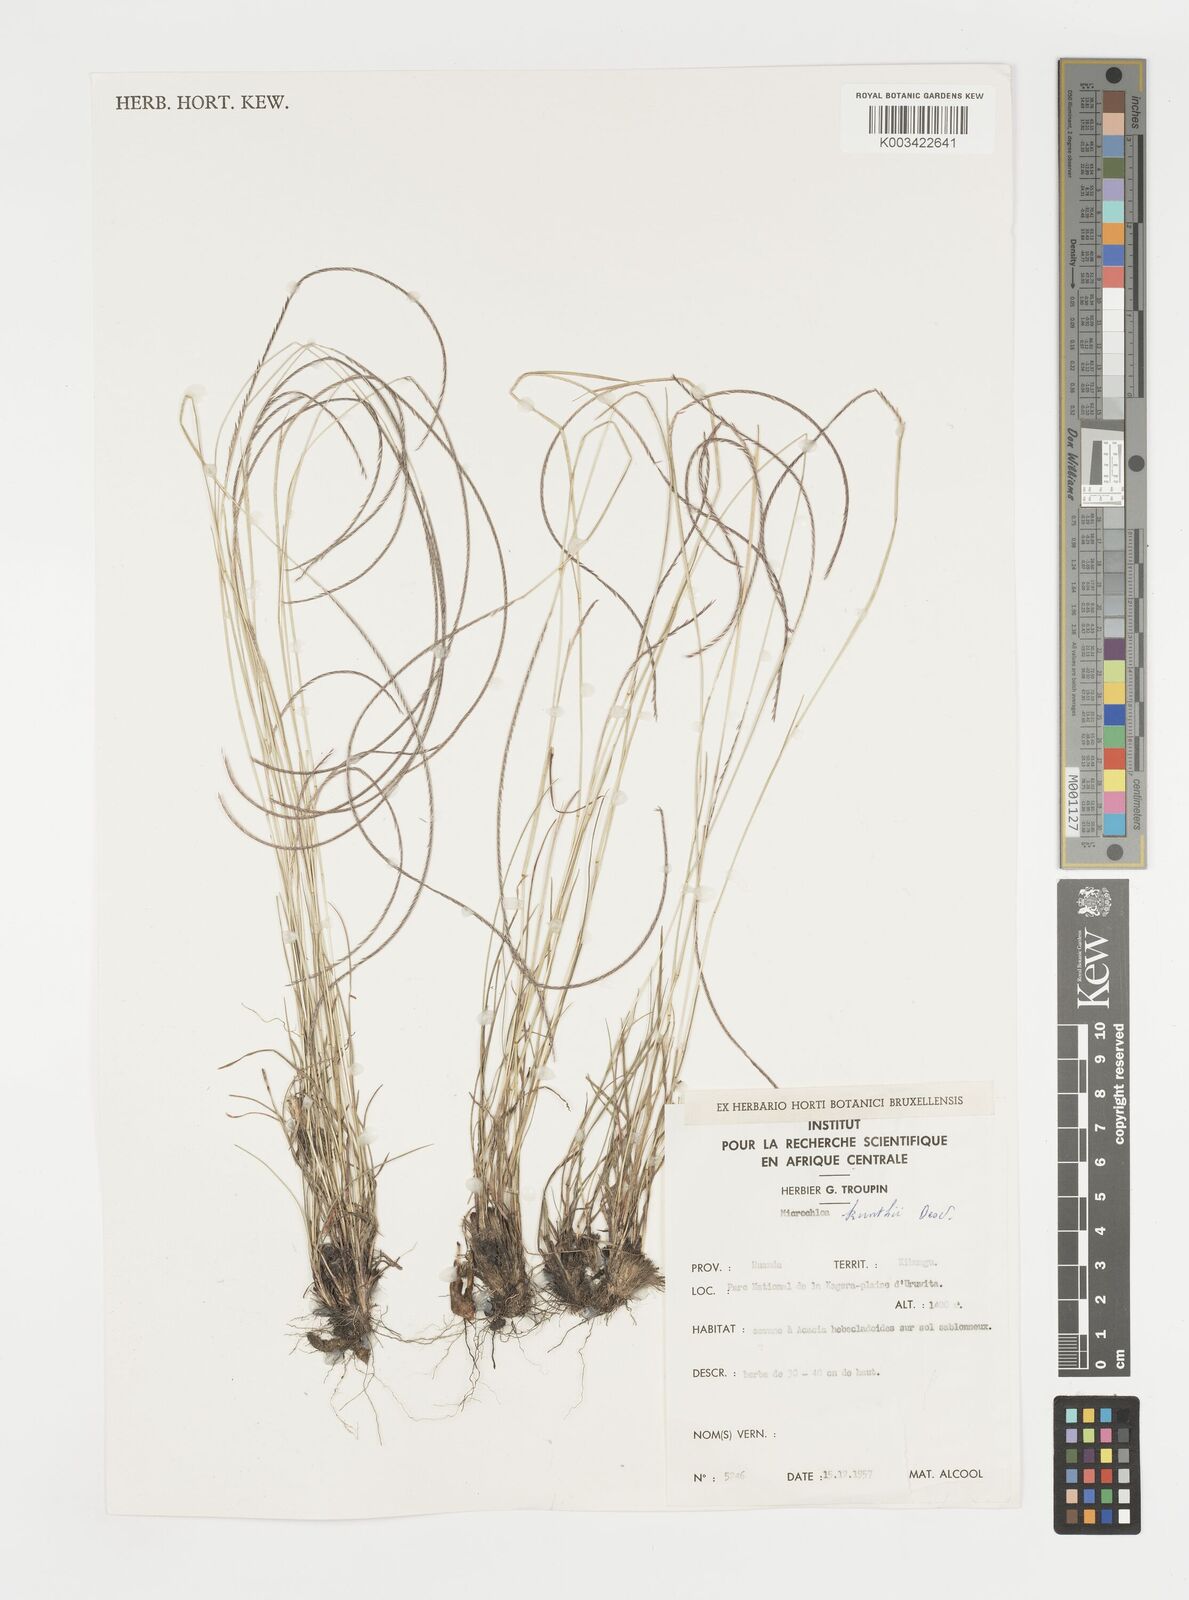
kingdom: Plantae
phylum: Tracheophyta
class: Liliopsida
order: Poales
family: Poaceae
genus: Microchloa
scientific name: Microchloa kunthii
